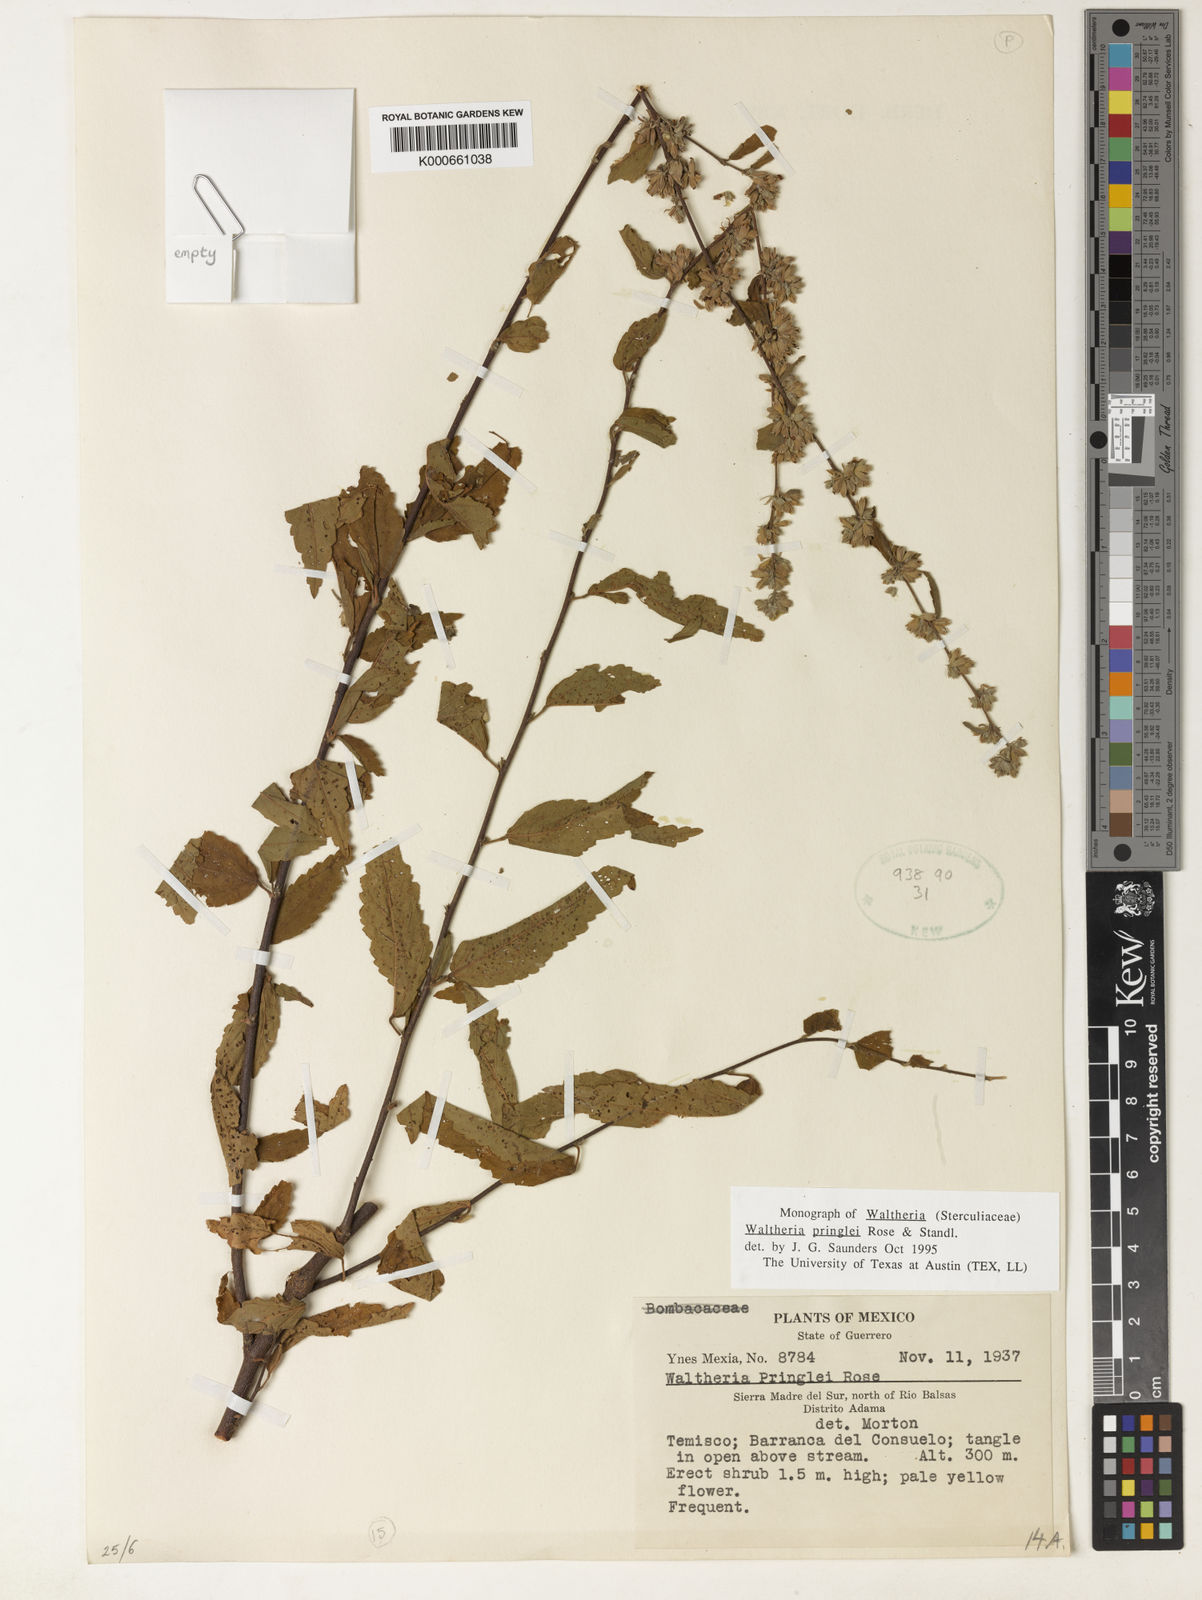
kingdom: Plantae
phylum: Tracheophyta
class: Magnoliopsida
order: Malvales
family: Malvaceae
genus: Waltheria
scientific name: Waltheria pringlei
